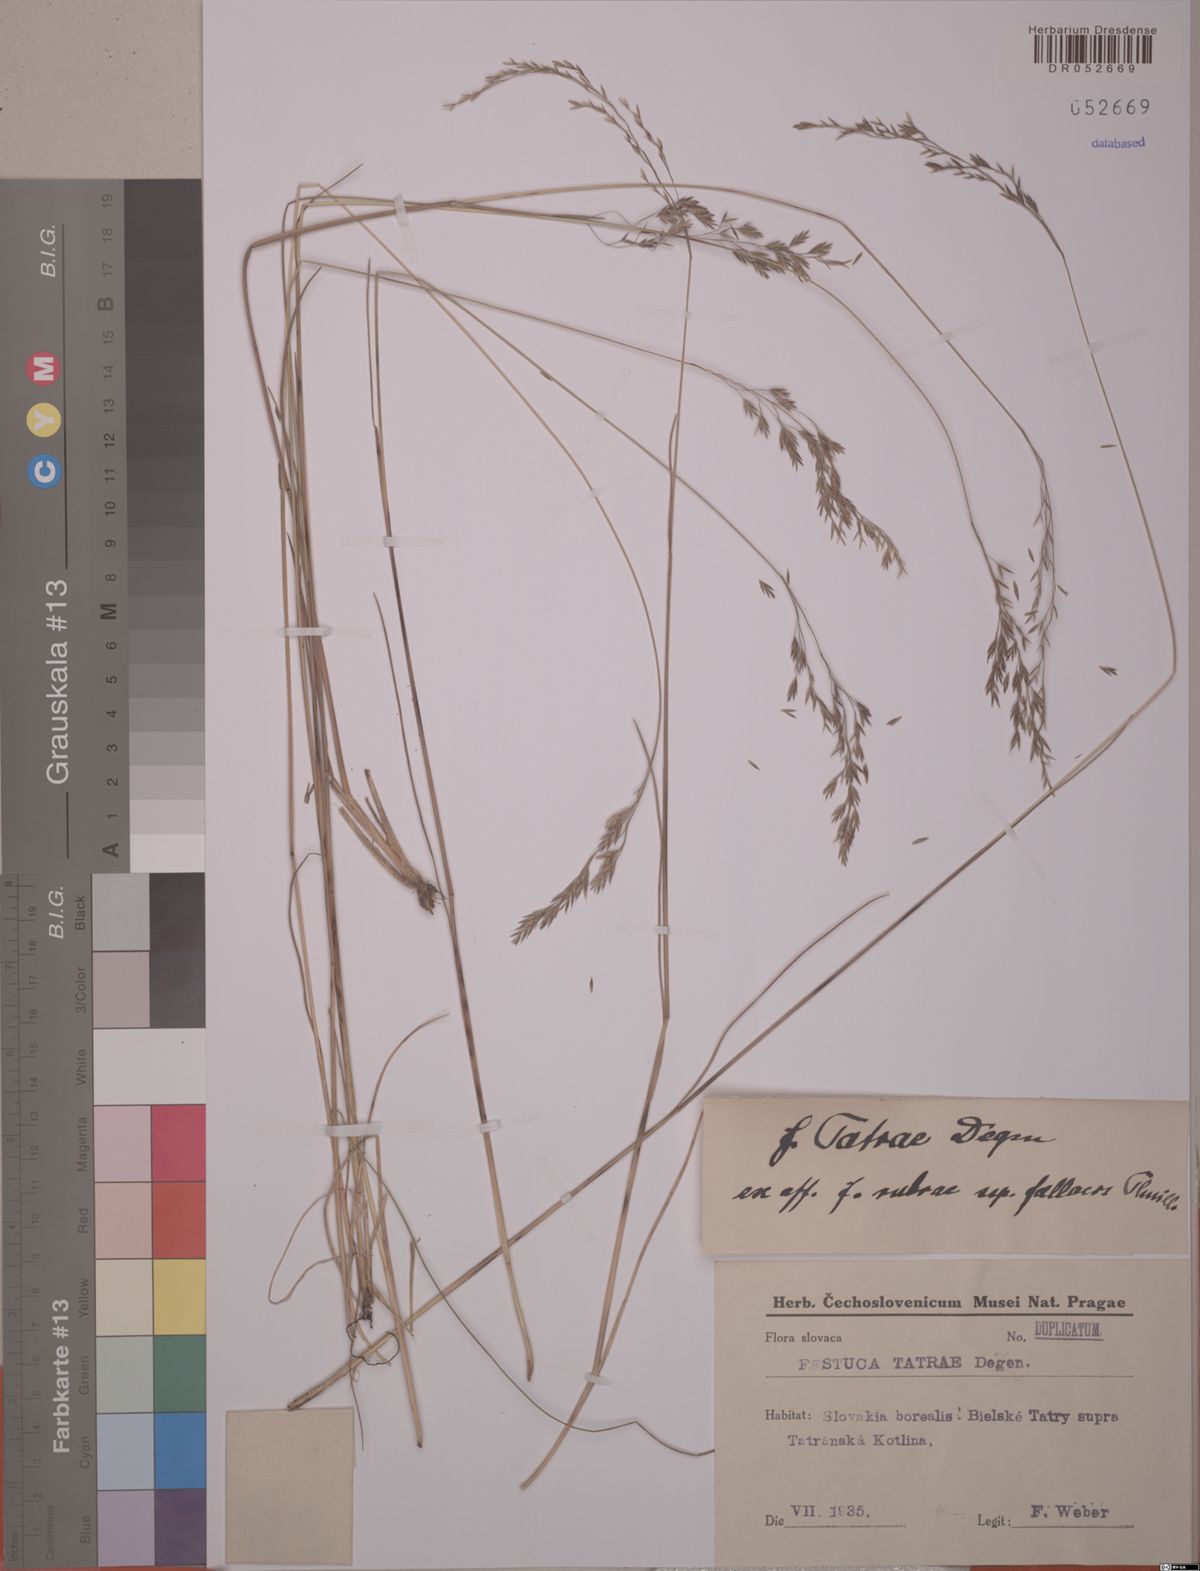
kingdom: Plantae
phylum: Tracheophyta
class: Liliopsida
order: Poales
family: Poaceae
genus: Festuca
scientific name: Festuca tatrae
